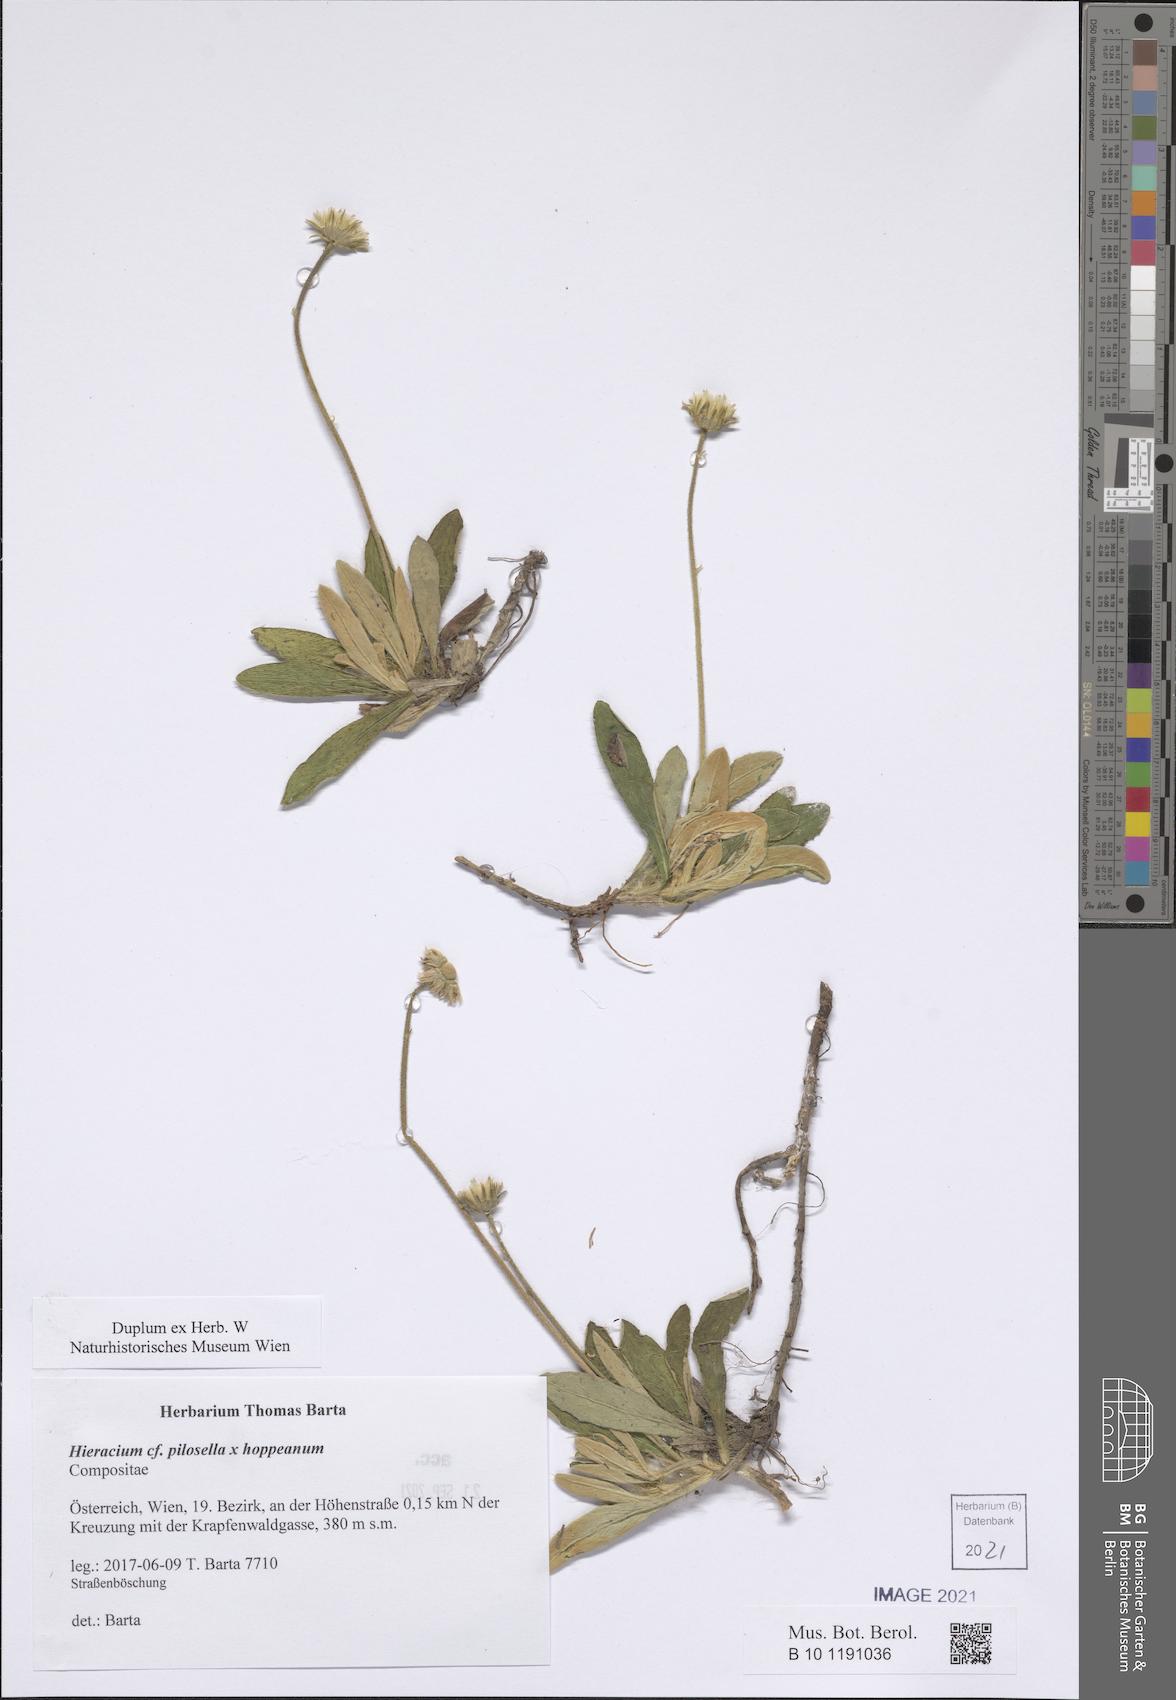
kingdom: Plantae
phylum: Tracheophyta
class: Magnoliopsida
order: Asterales
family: Asteraceae
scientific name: Asteraceae
